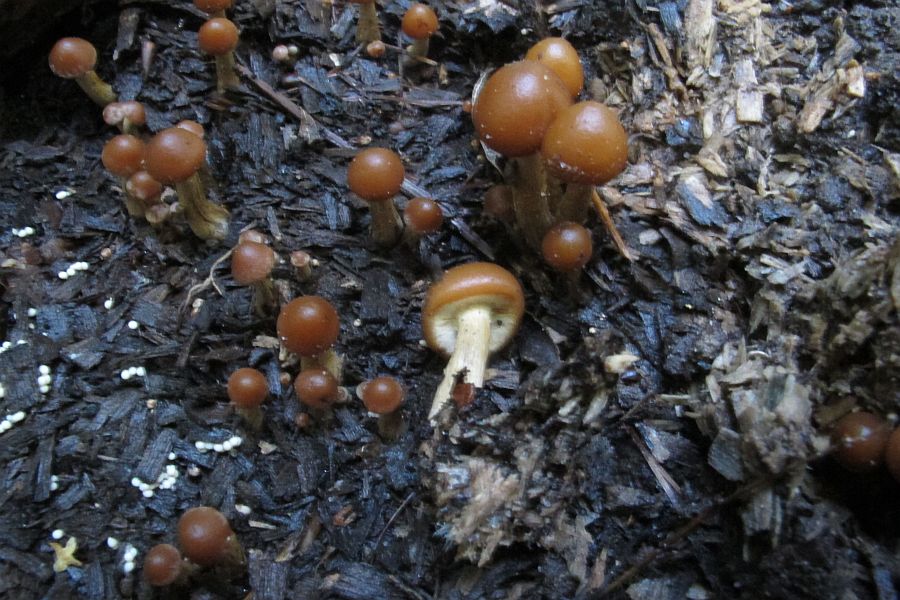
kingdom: Fungi
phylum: Basidiomycota
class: Agaricomycetes
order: Agaricales
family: Hymenogastraceae
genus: Galerina
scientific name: Galerina marginata
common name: randbæltet hjelmhat
